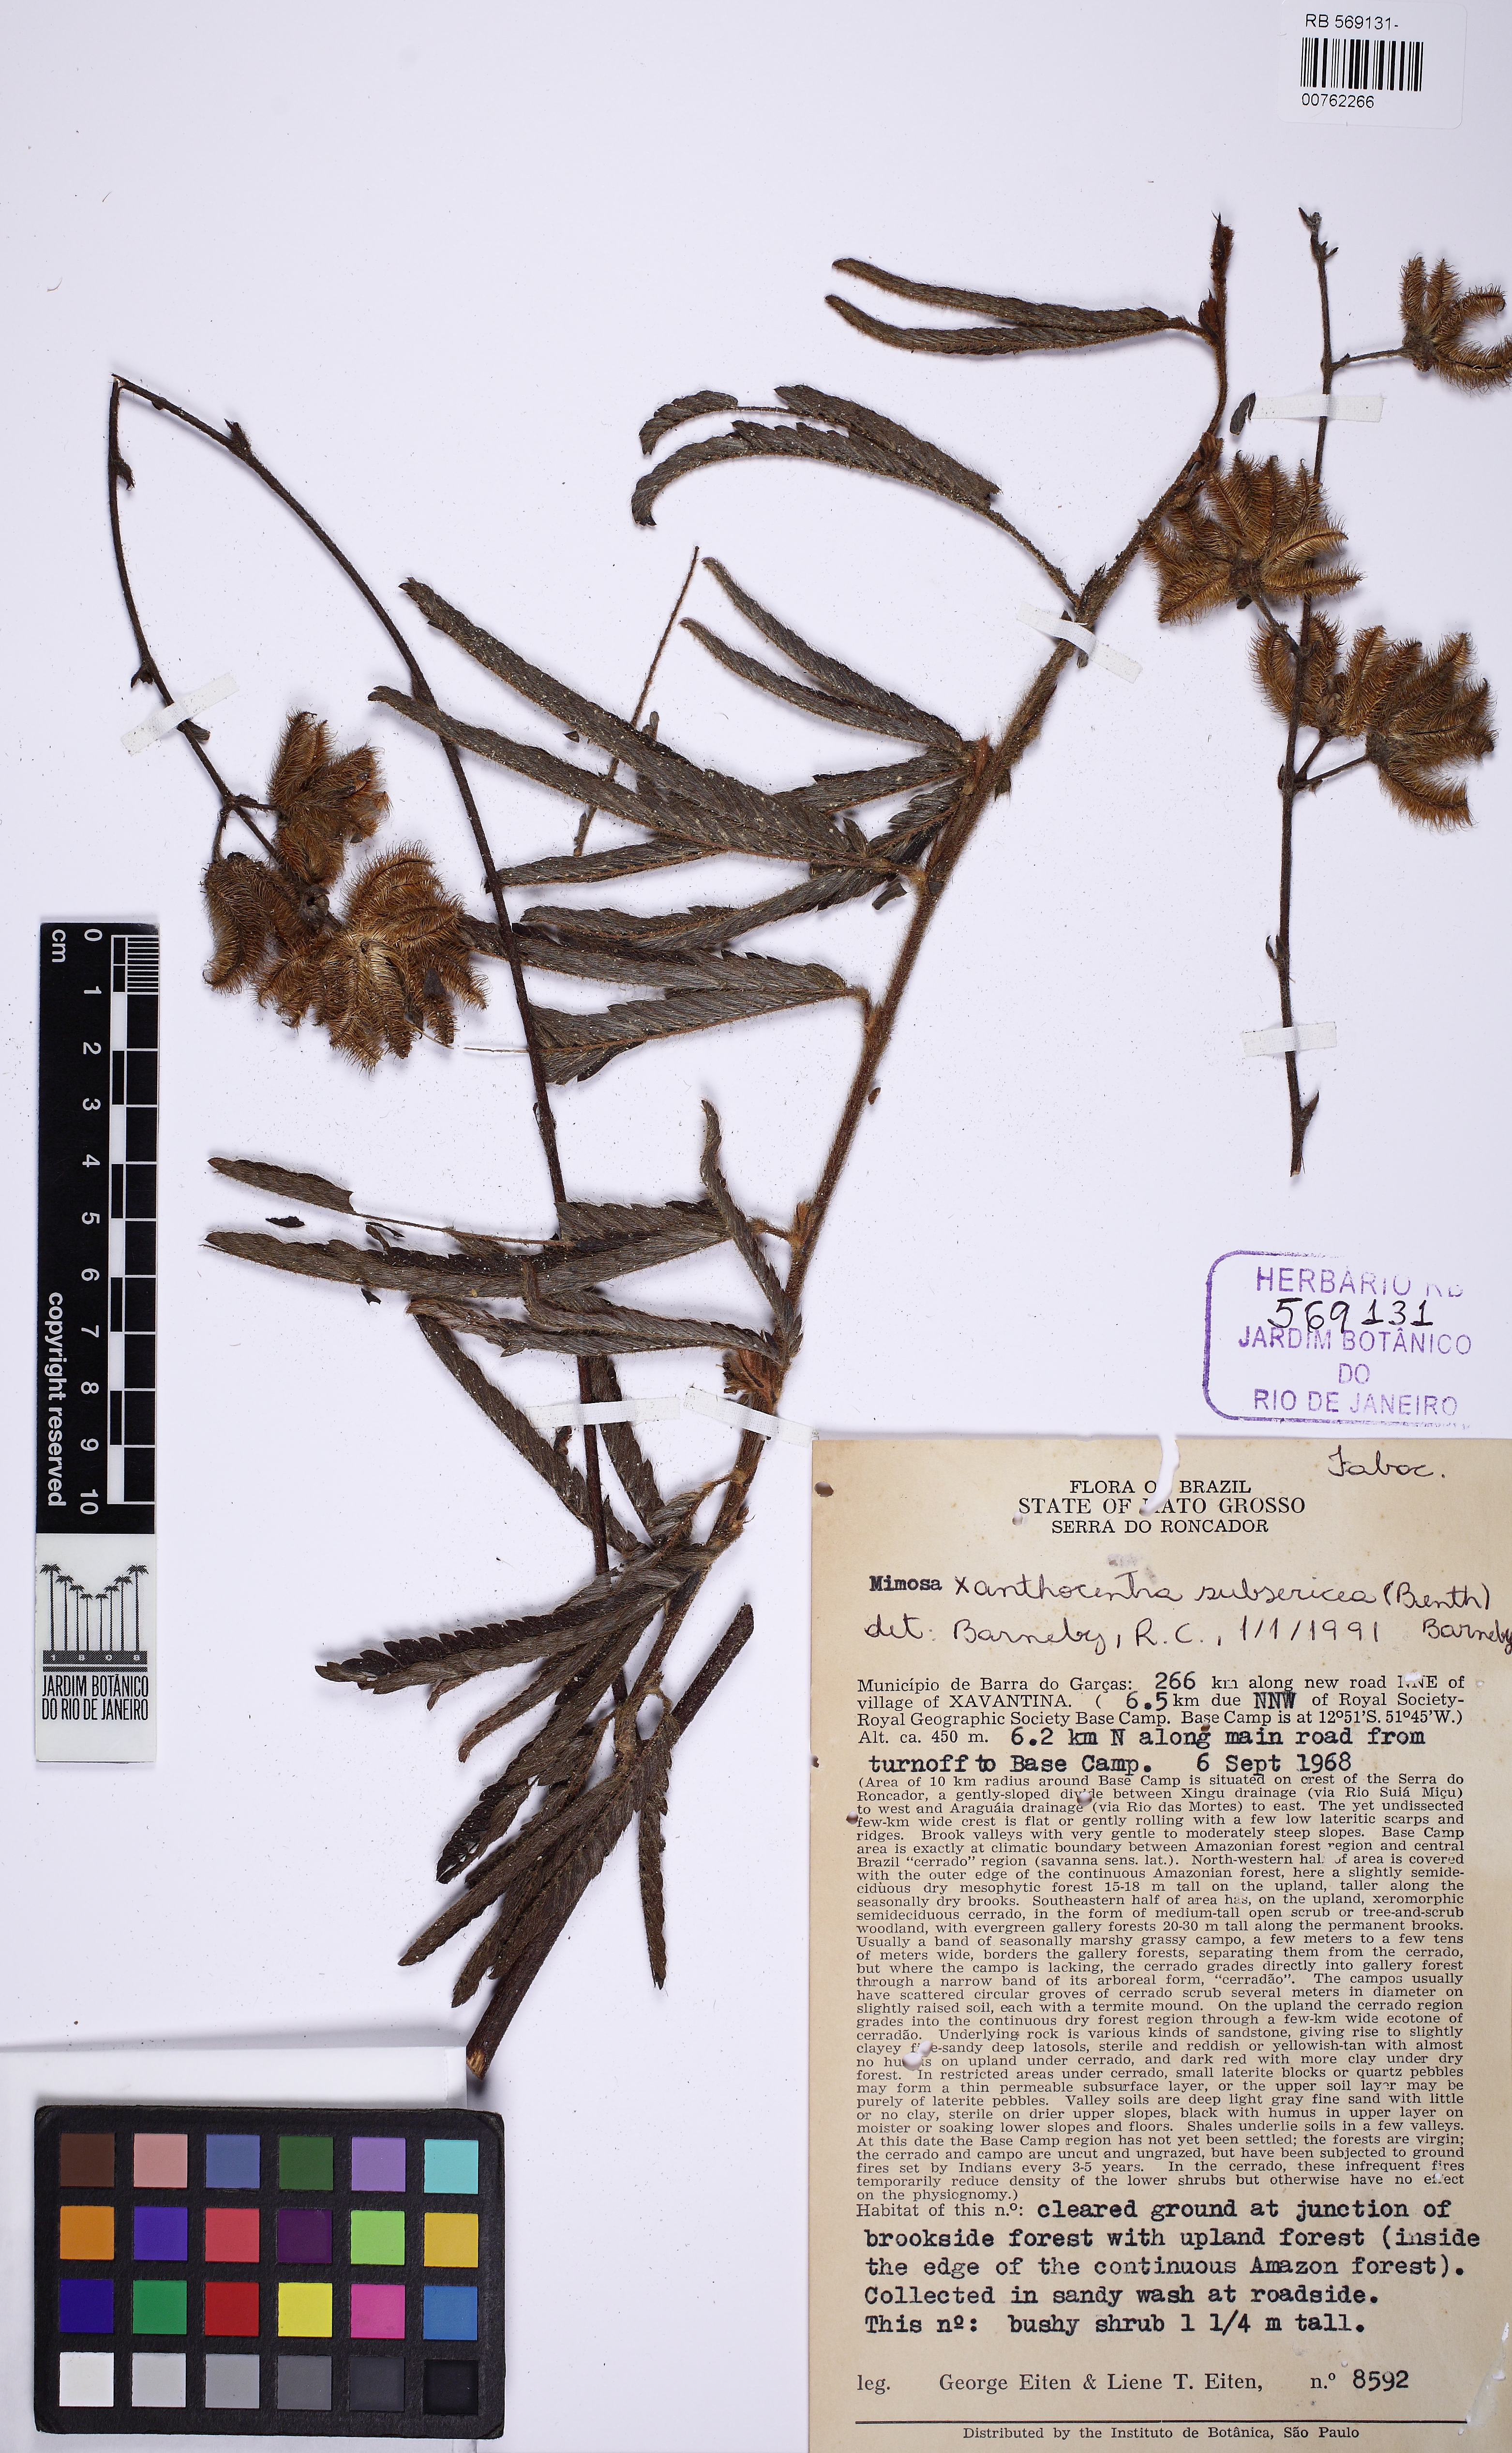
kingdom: Plantae
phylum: Tracheophyta
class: Magnoliopsida
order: Fabales
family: Fabaceae
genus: Mimosa
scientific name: Mimosa xanthocentra
